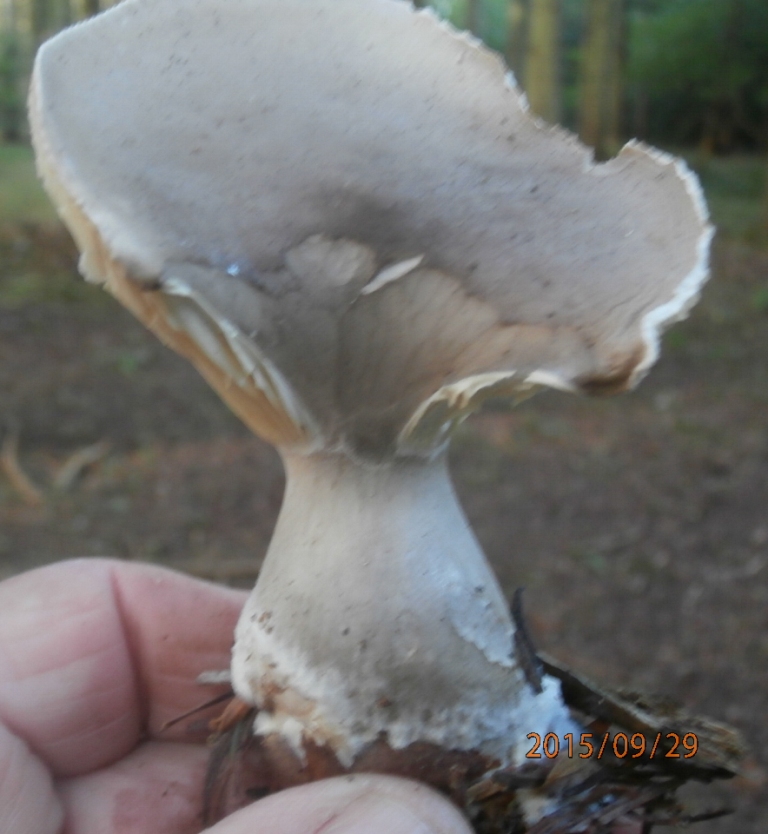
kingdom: Fungi
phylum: Basidiomycota
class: Agaricomycetes
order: Agaricales
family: Hygrophoraceae
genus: Ampulloclitocybe
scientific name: Ampulloclitocybe clavipes
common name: køllefod
